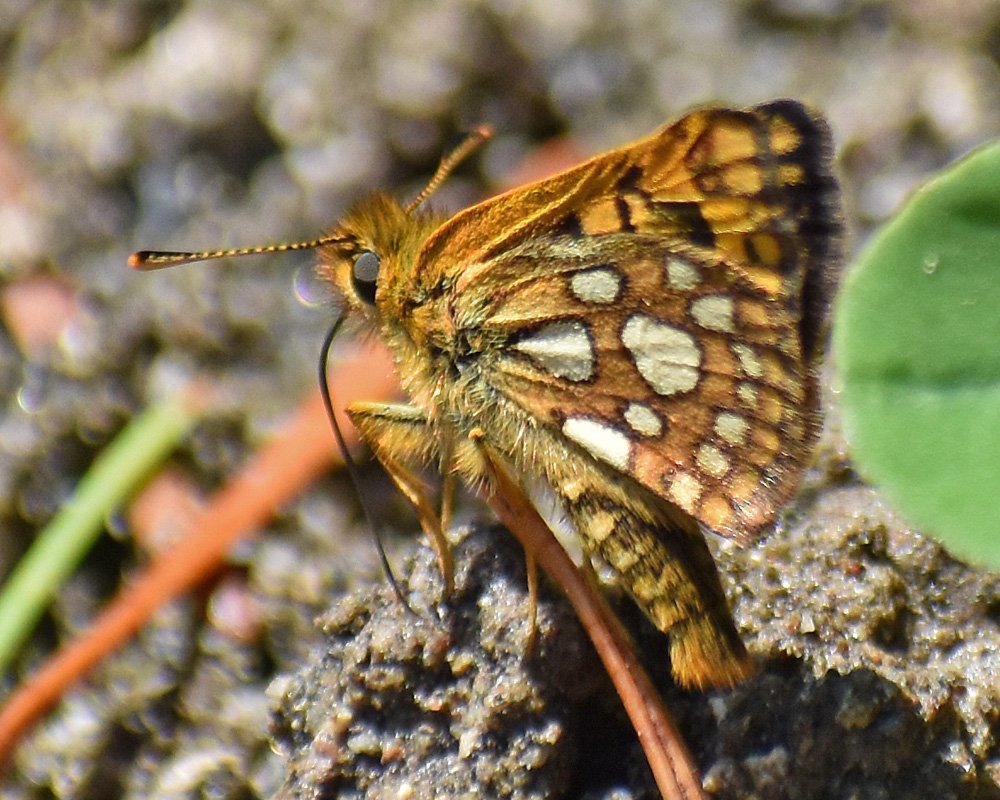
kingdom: Animalia
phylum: Arthropoda
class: Insecta
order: Lepidoptera
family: Hesperiidae
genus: Carterocephalus
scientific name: Carterocephalus palaemon
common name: Chequered Skipper
